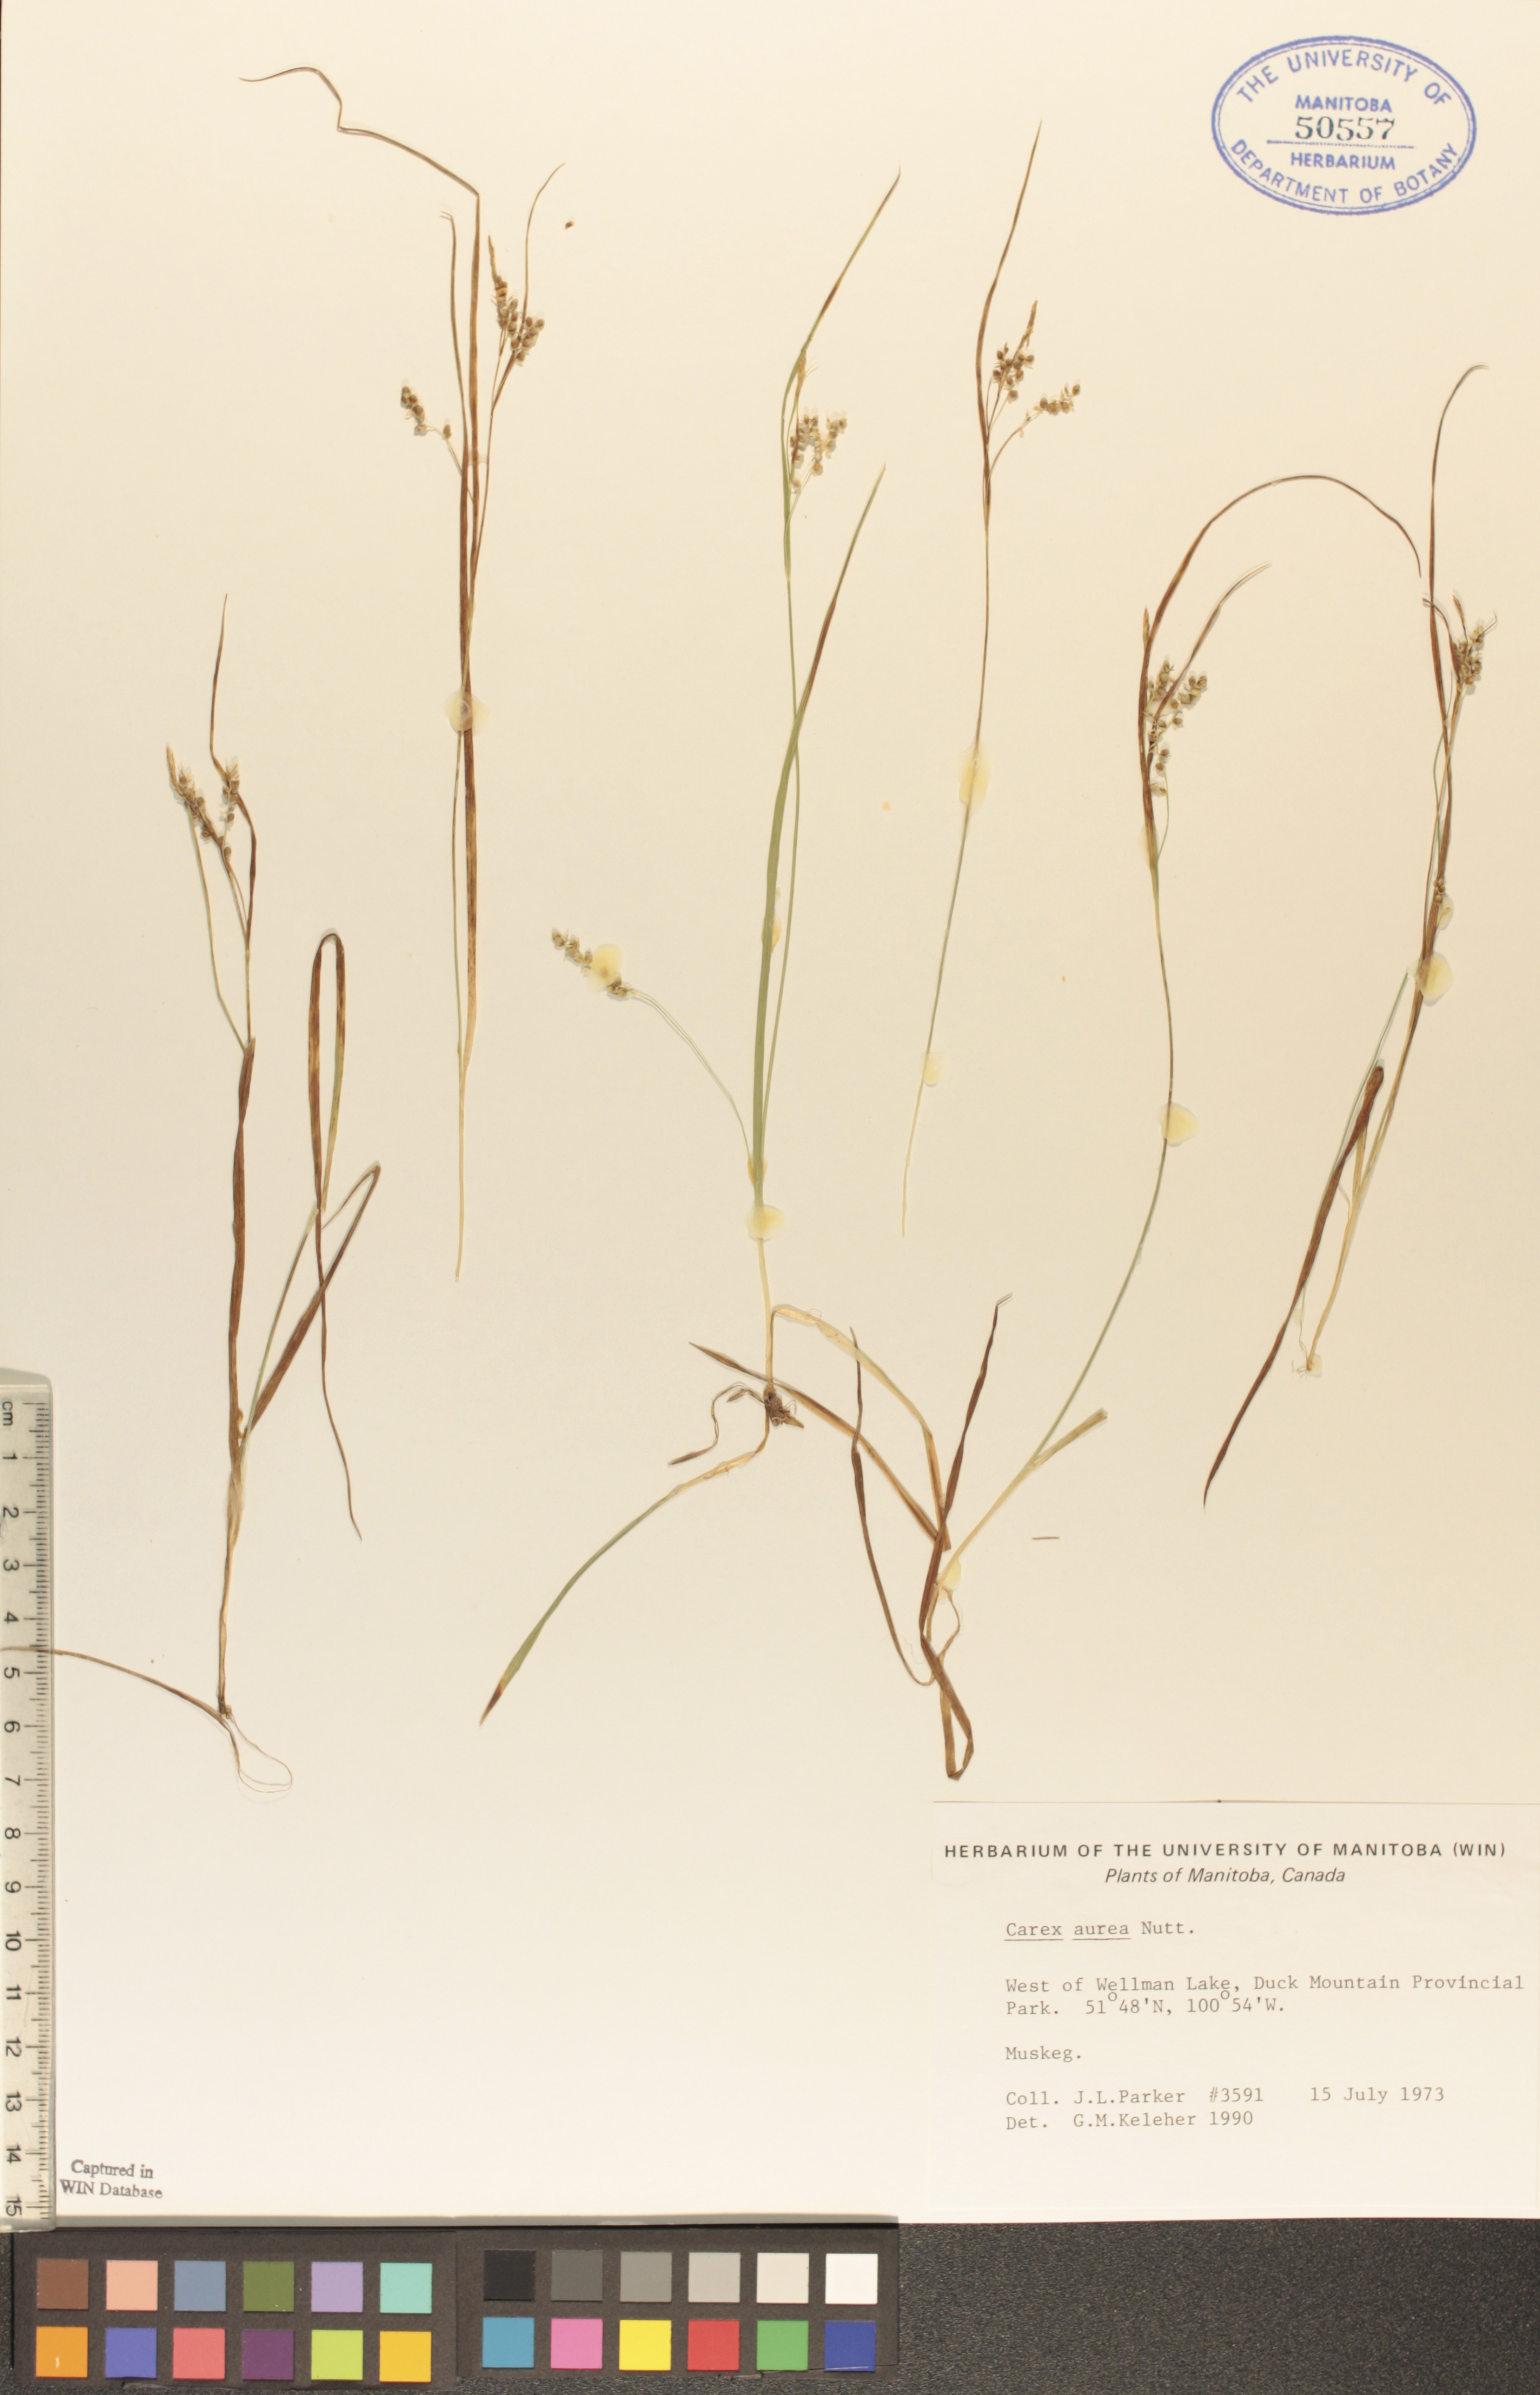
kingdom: Plantae
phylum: Tracheophyta
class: Liliopsida
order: Poales
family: Cyperaceae
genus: Carex
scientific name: Carex aurea
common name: Golden sedge
